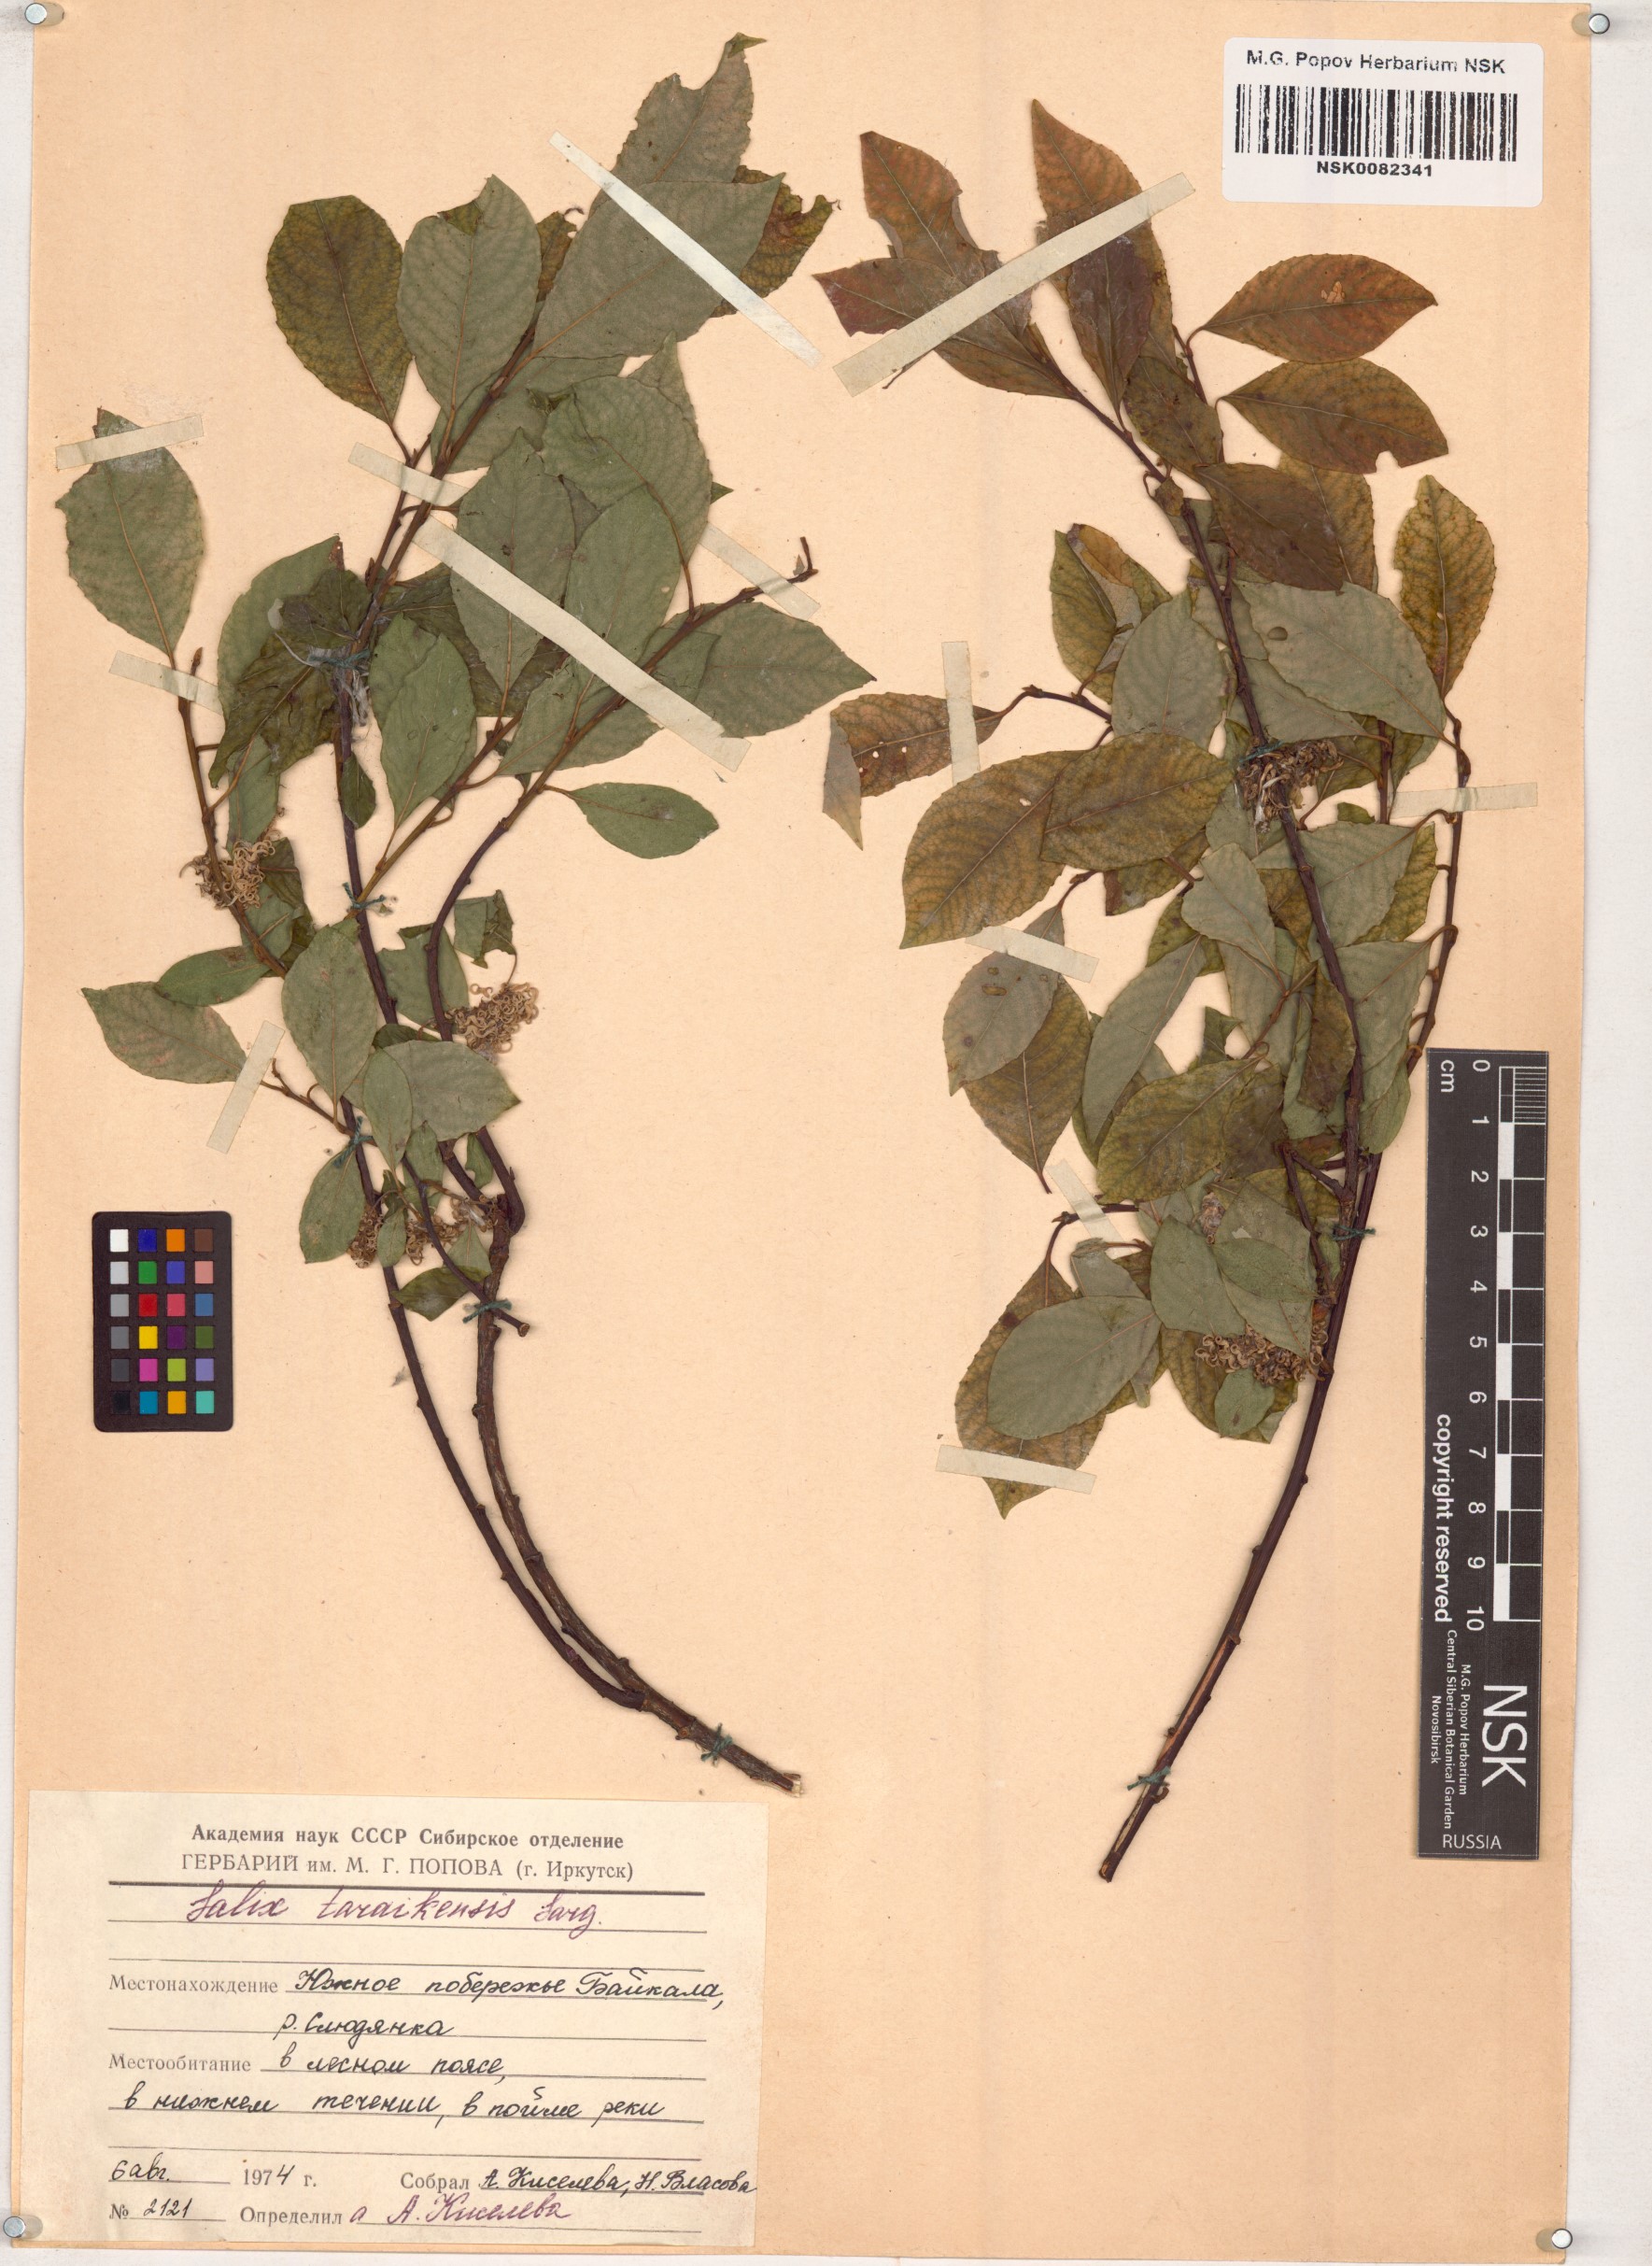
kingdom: Plantae
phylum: Tracheophyta
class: Magnoliopsida
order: Malpighiales
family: Salicaceae
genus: Salix
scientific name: Salix taraikensis
